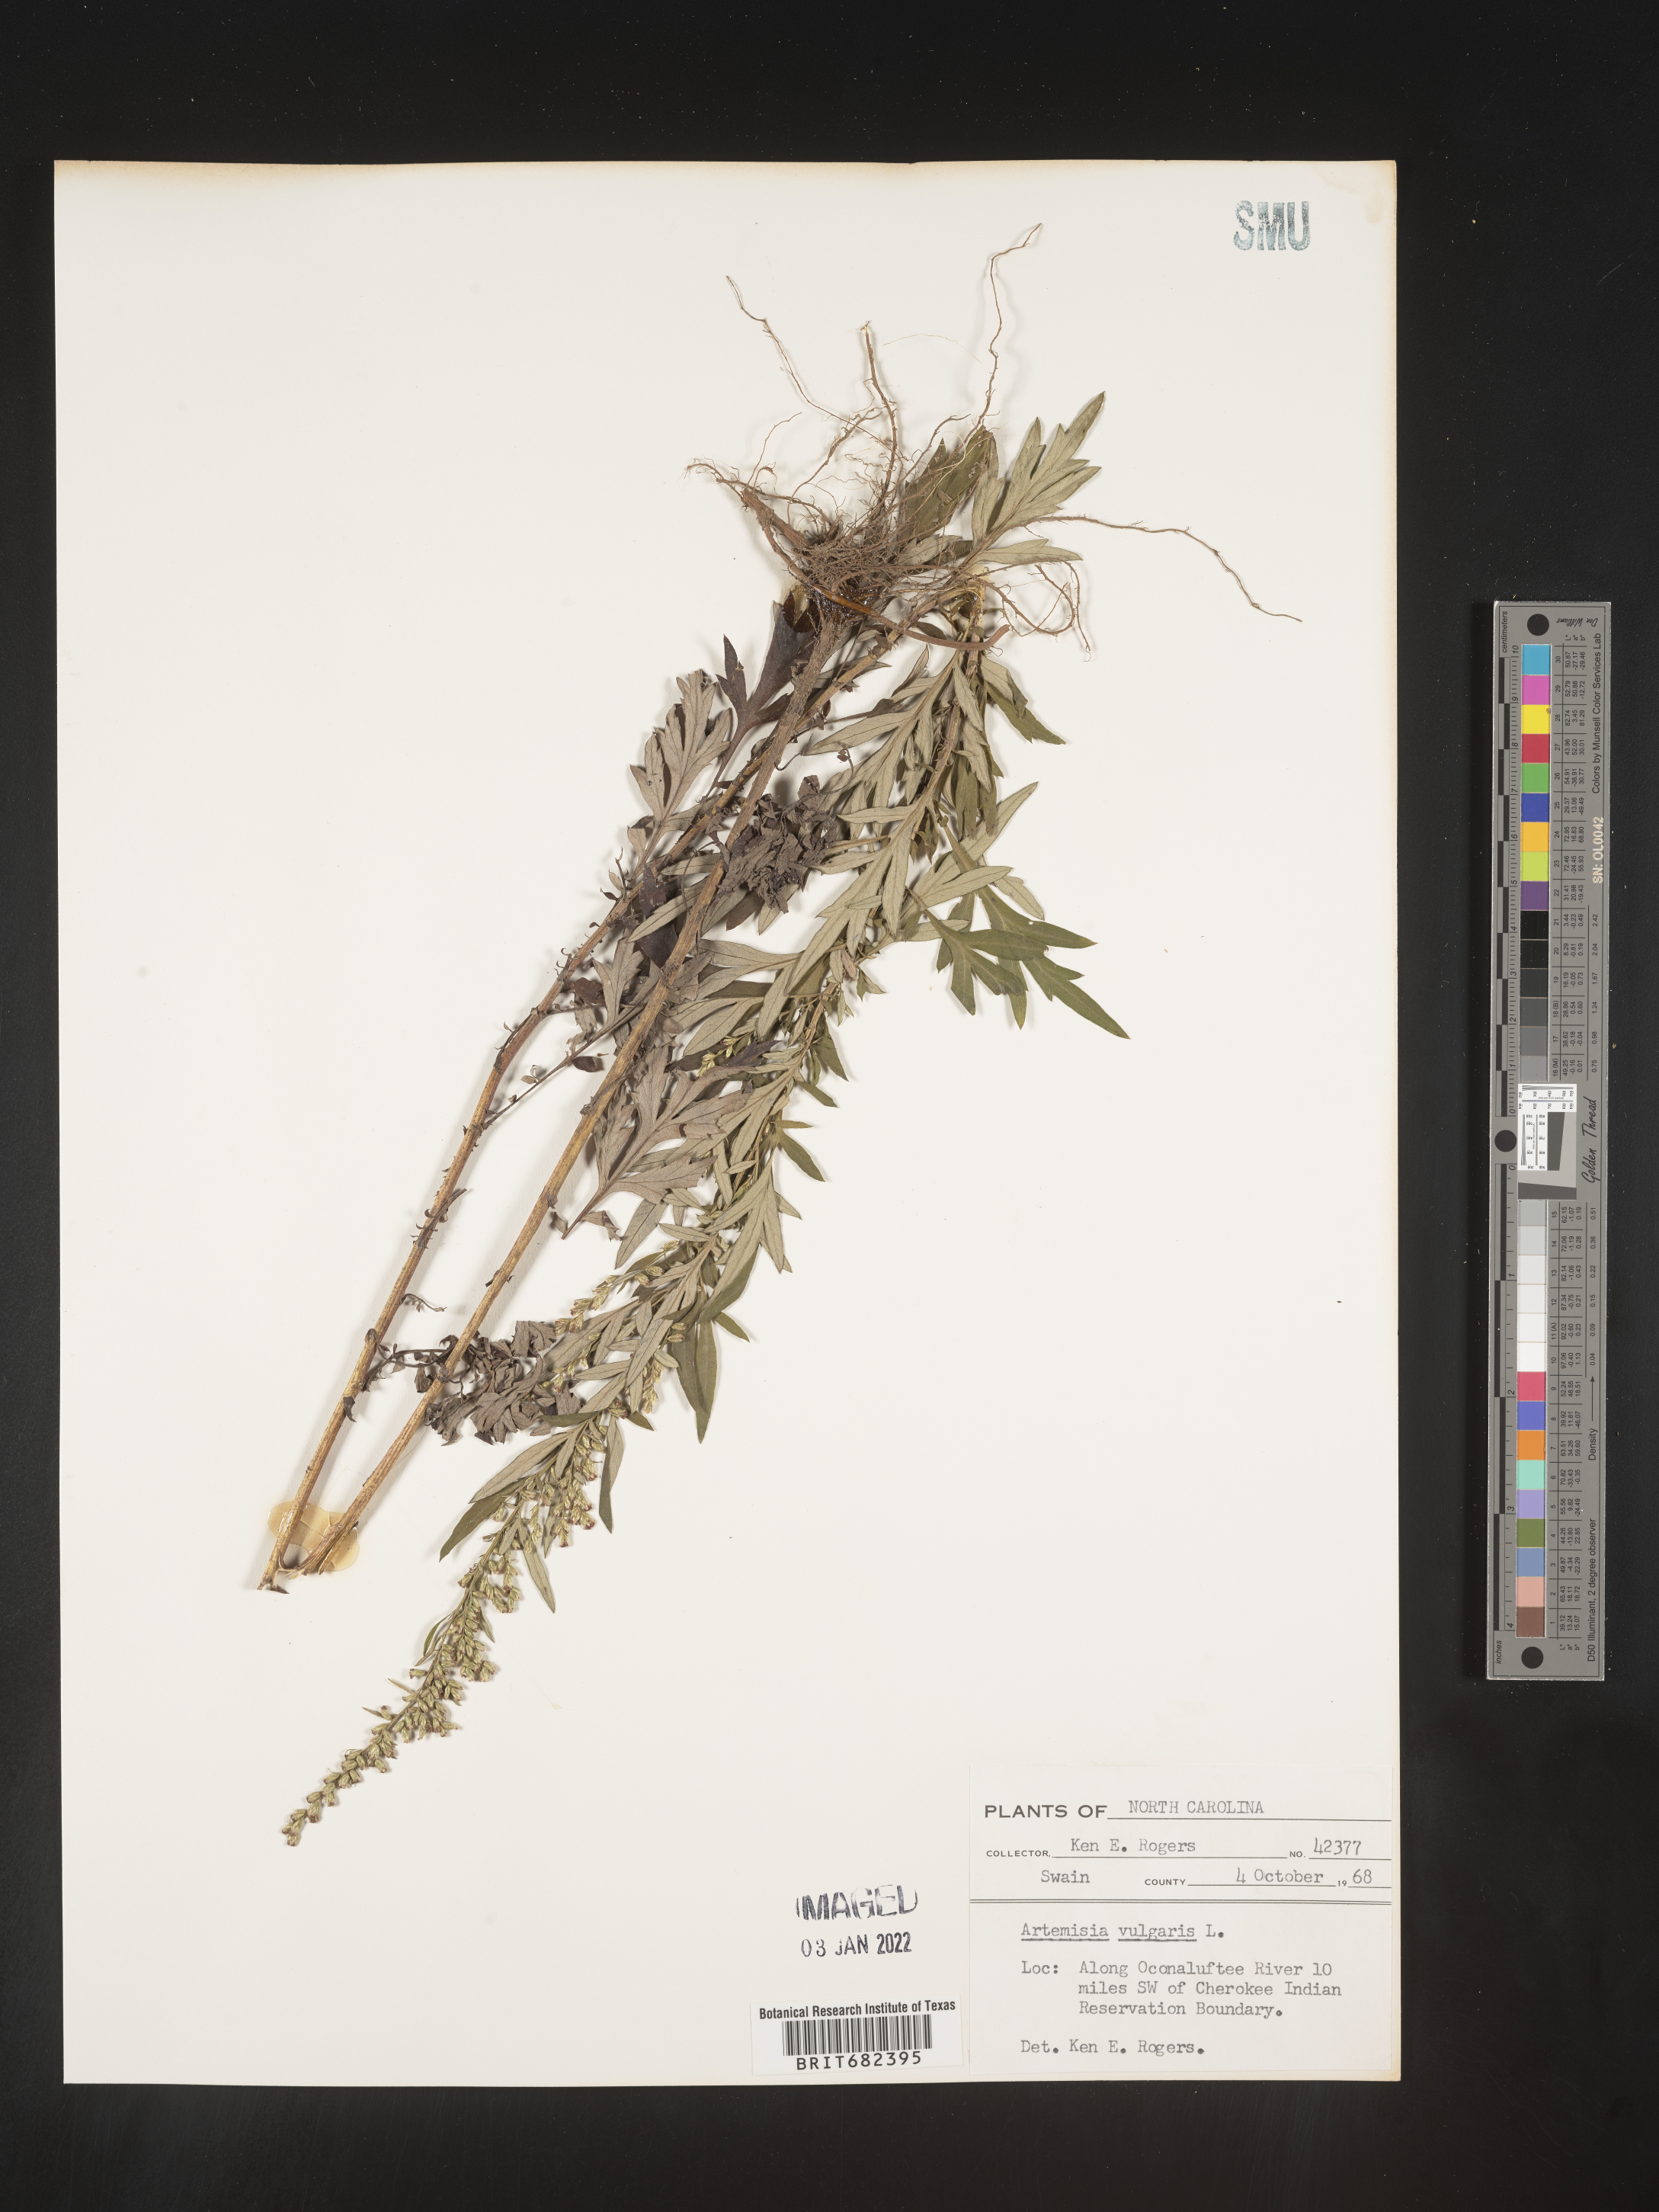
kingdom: Plantae
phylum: Tracheophyta
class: Magnoliopsida
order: Asterales
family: Asteraceae
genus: Artemisia
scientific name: Artemisia vulgaris
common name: Mugwort
